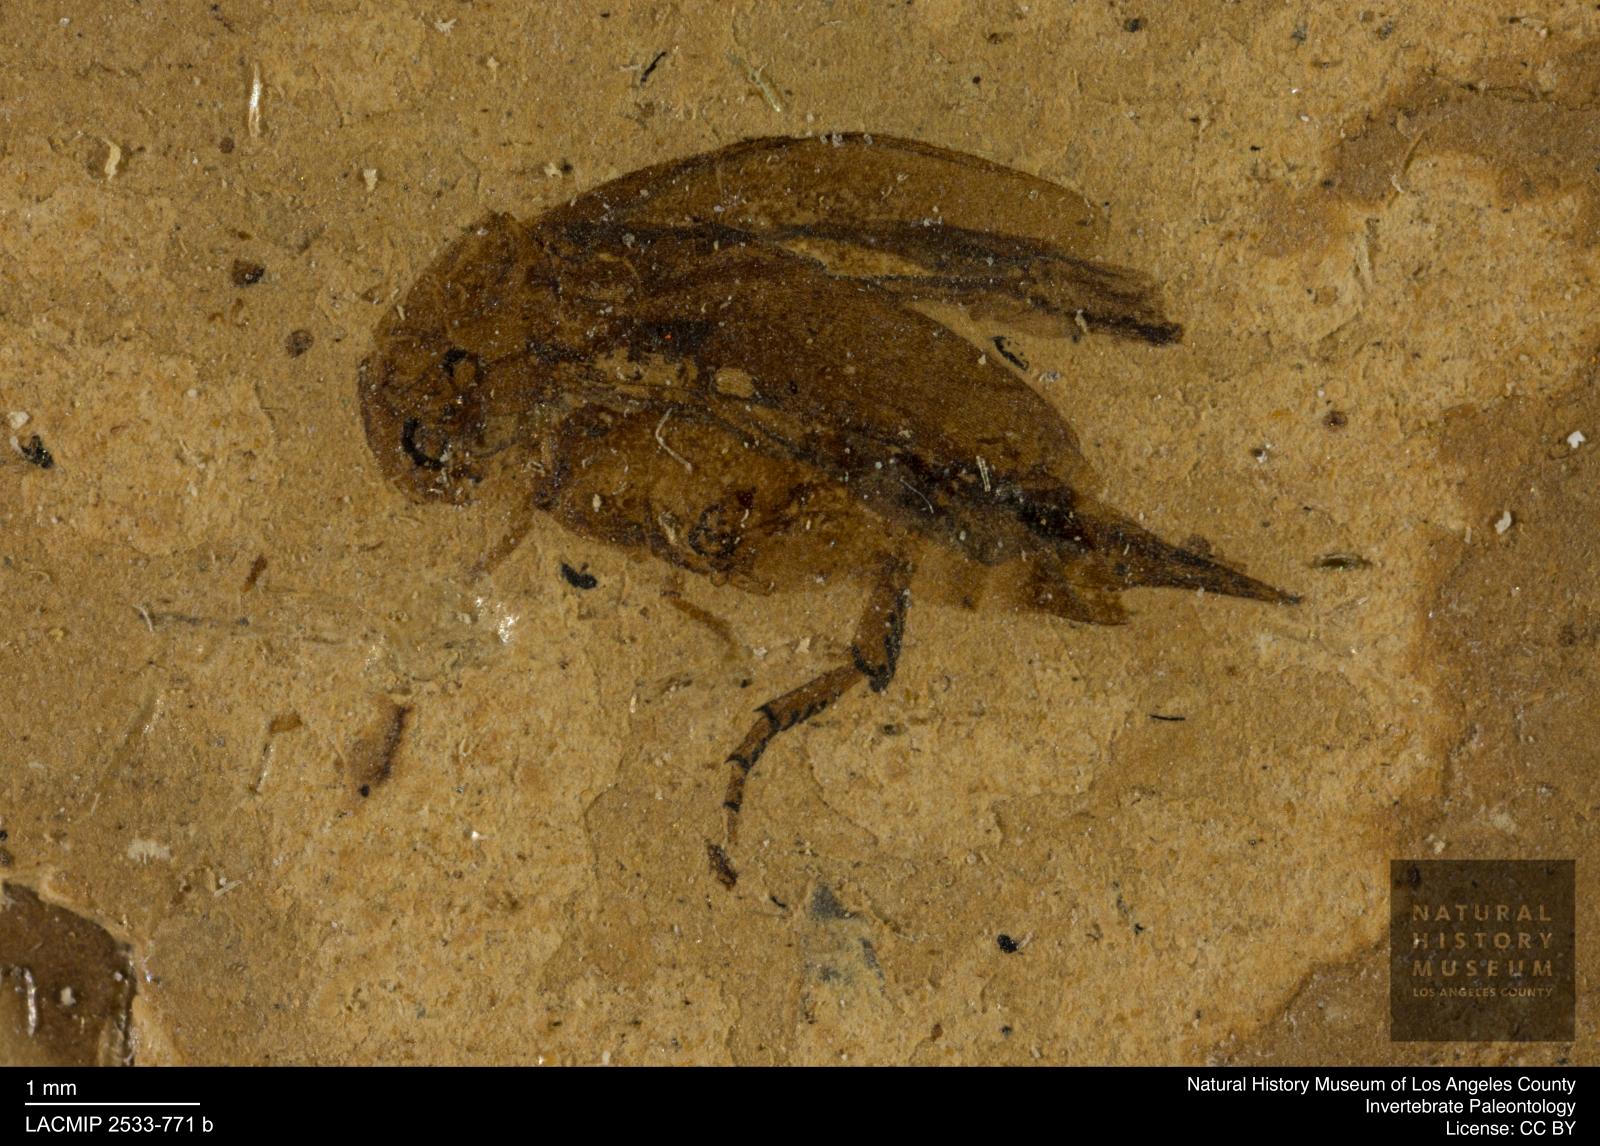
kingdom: Animalia
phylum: Arthropoda
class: Insecta
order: Coleoptera
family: Mordellidae
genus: Mordella
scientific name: Mordella indata
